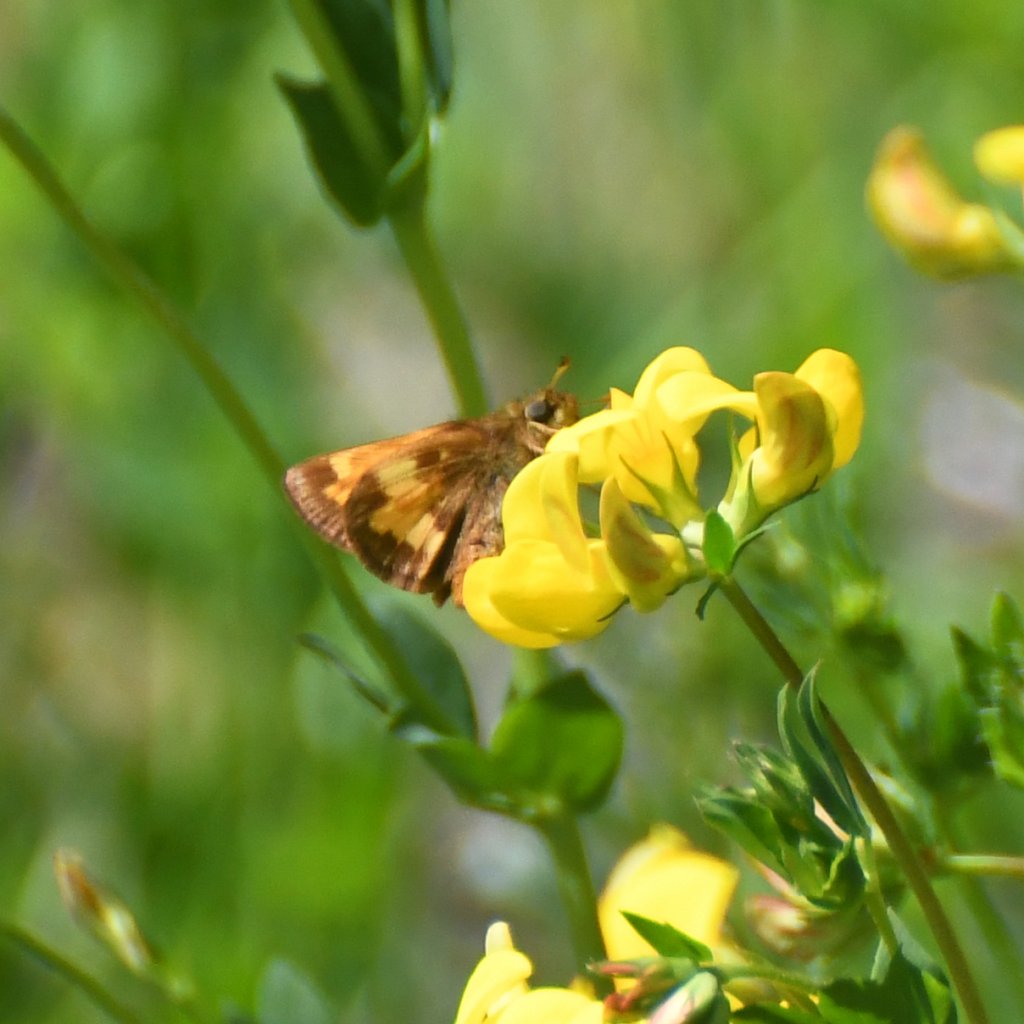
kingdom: Animalia
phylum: Arthropoda
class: Insecta
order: Lepidoptera
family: Hesperiidae
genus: Lon
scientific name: Lon hobomok
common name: Hobomok Skipper
